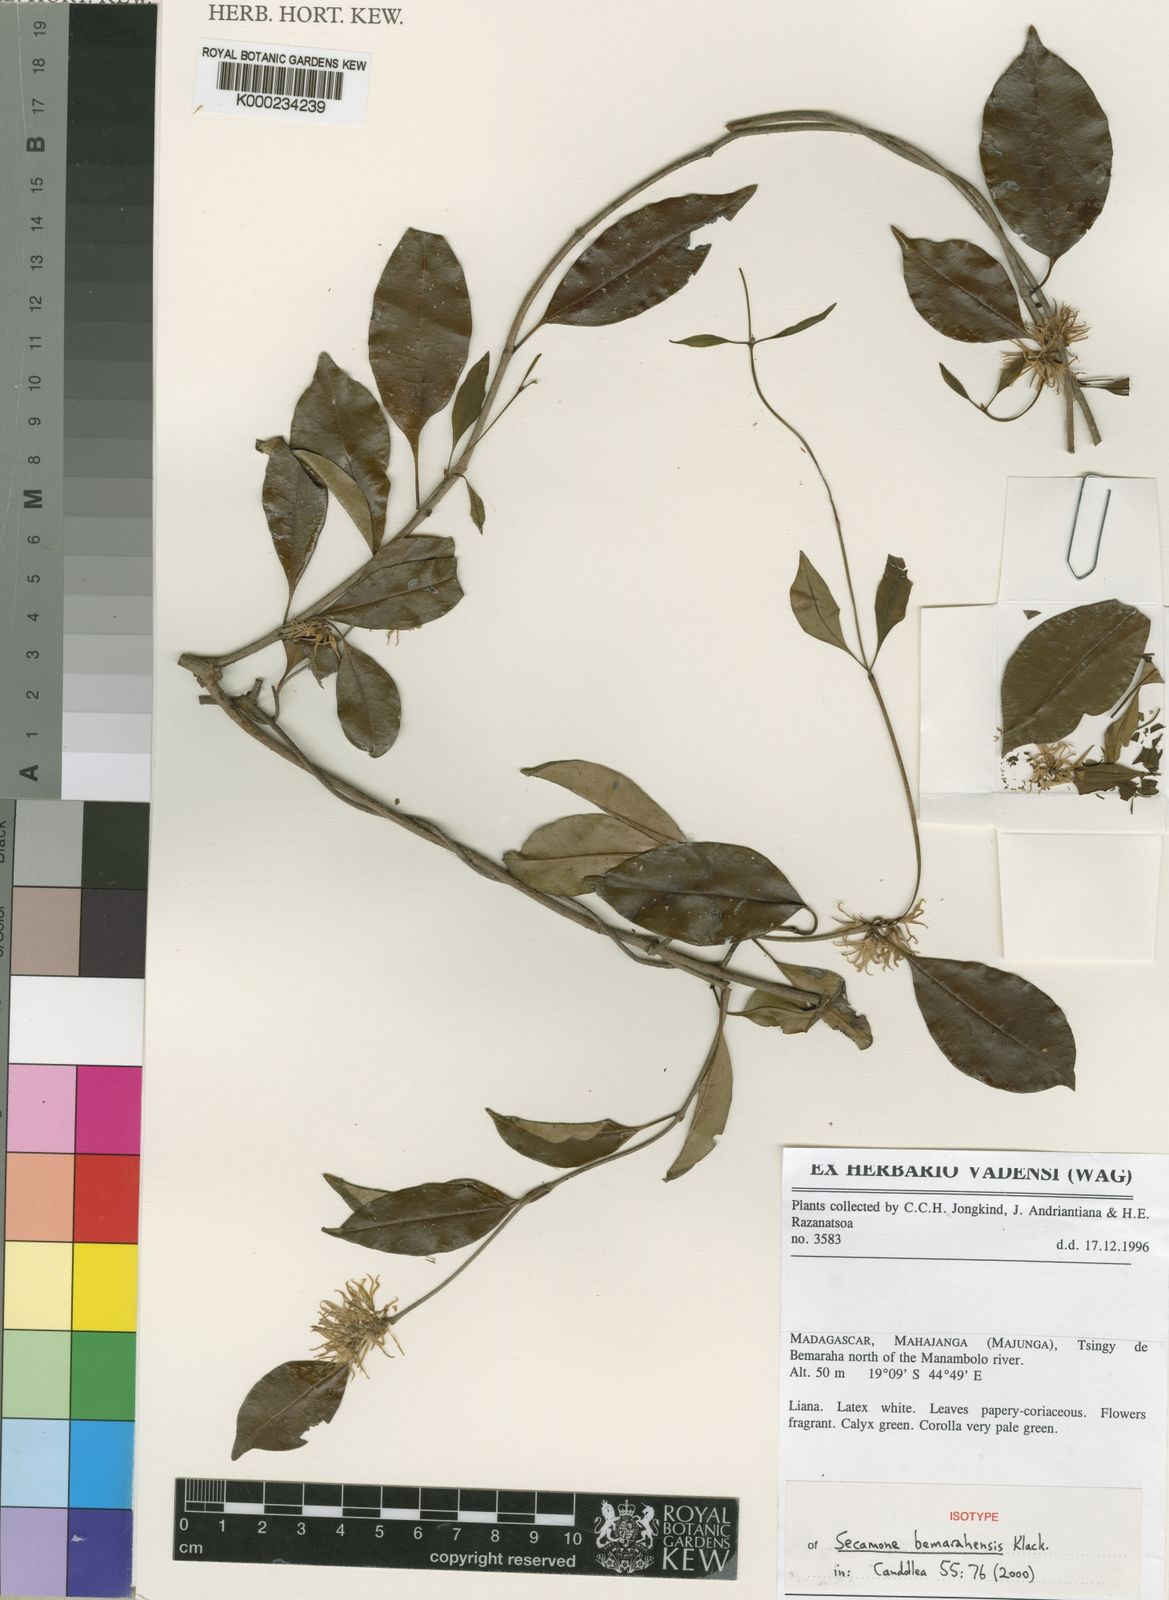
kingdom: Plantae
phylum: Tracheophyta
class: Magnoliopsida
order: Gentianales
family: Apocynaceae
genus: Secamone
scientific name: Secamone bemarahensis
